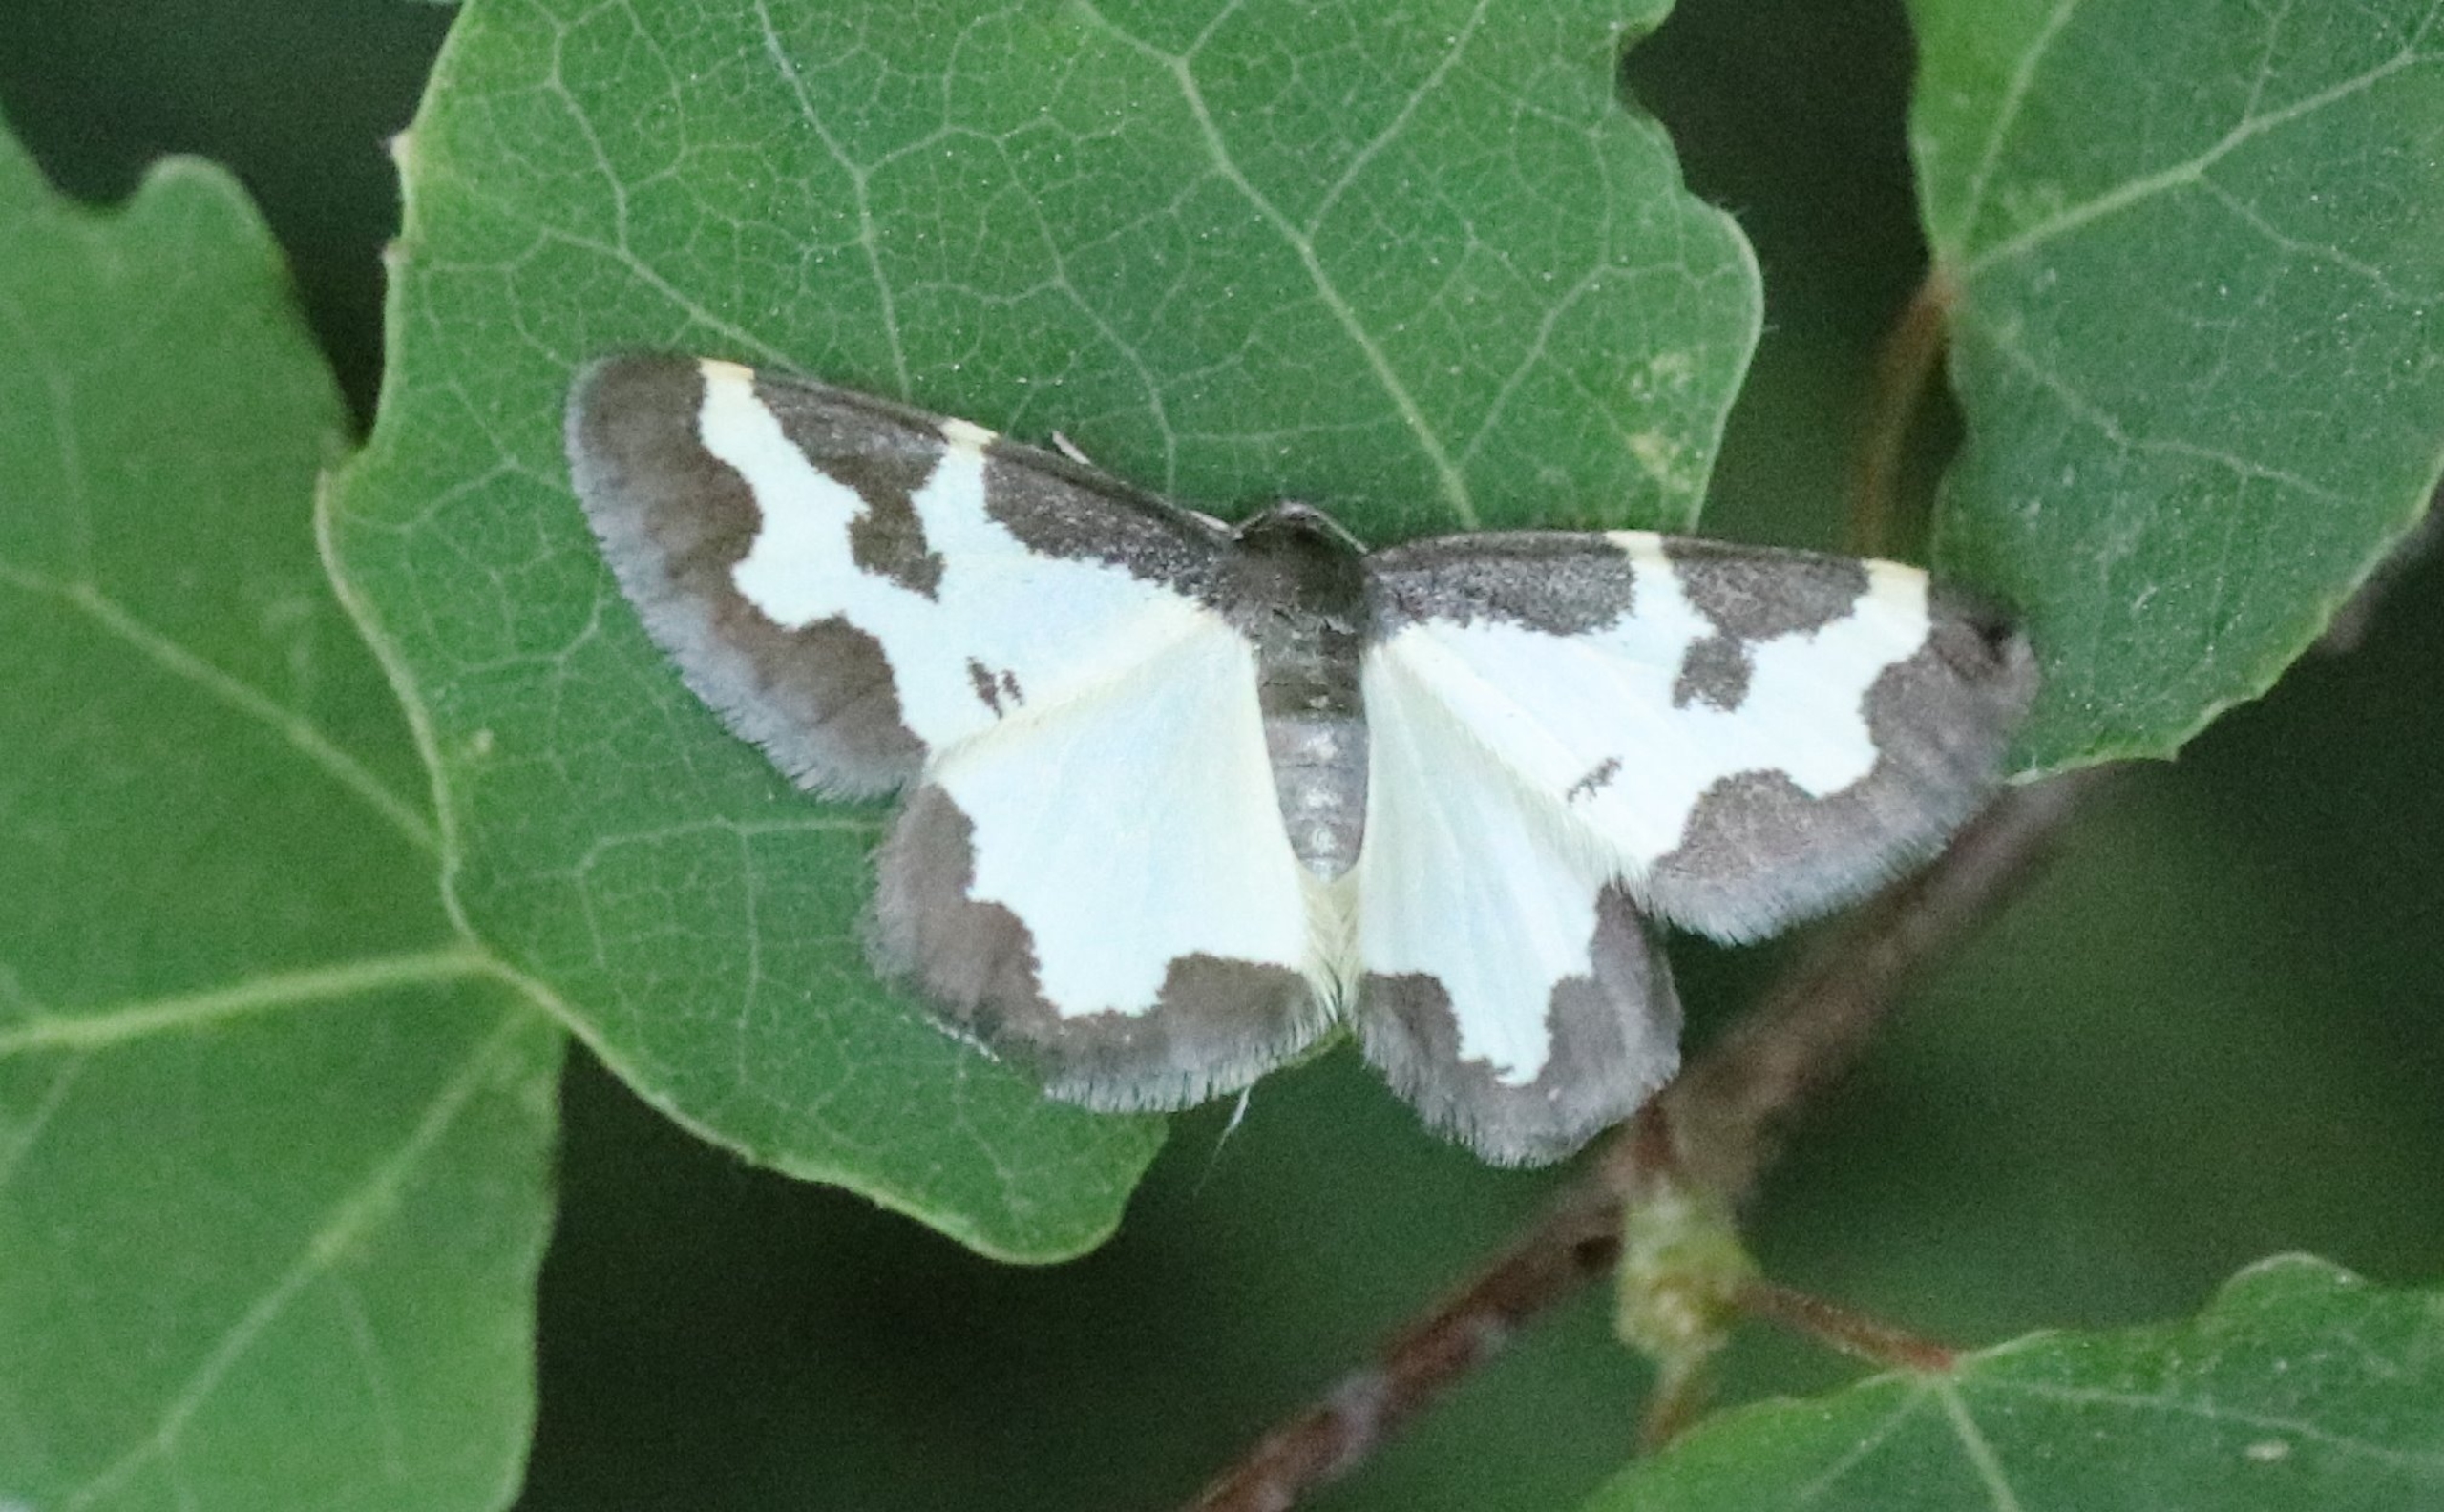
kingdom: Animalia
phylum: Arthropoda
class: Insecta
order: Lepidoptera
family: Geometridae
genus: Lomaspilis
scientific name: Lomaspilis marginata
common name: Sortrandet måler
